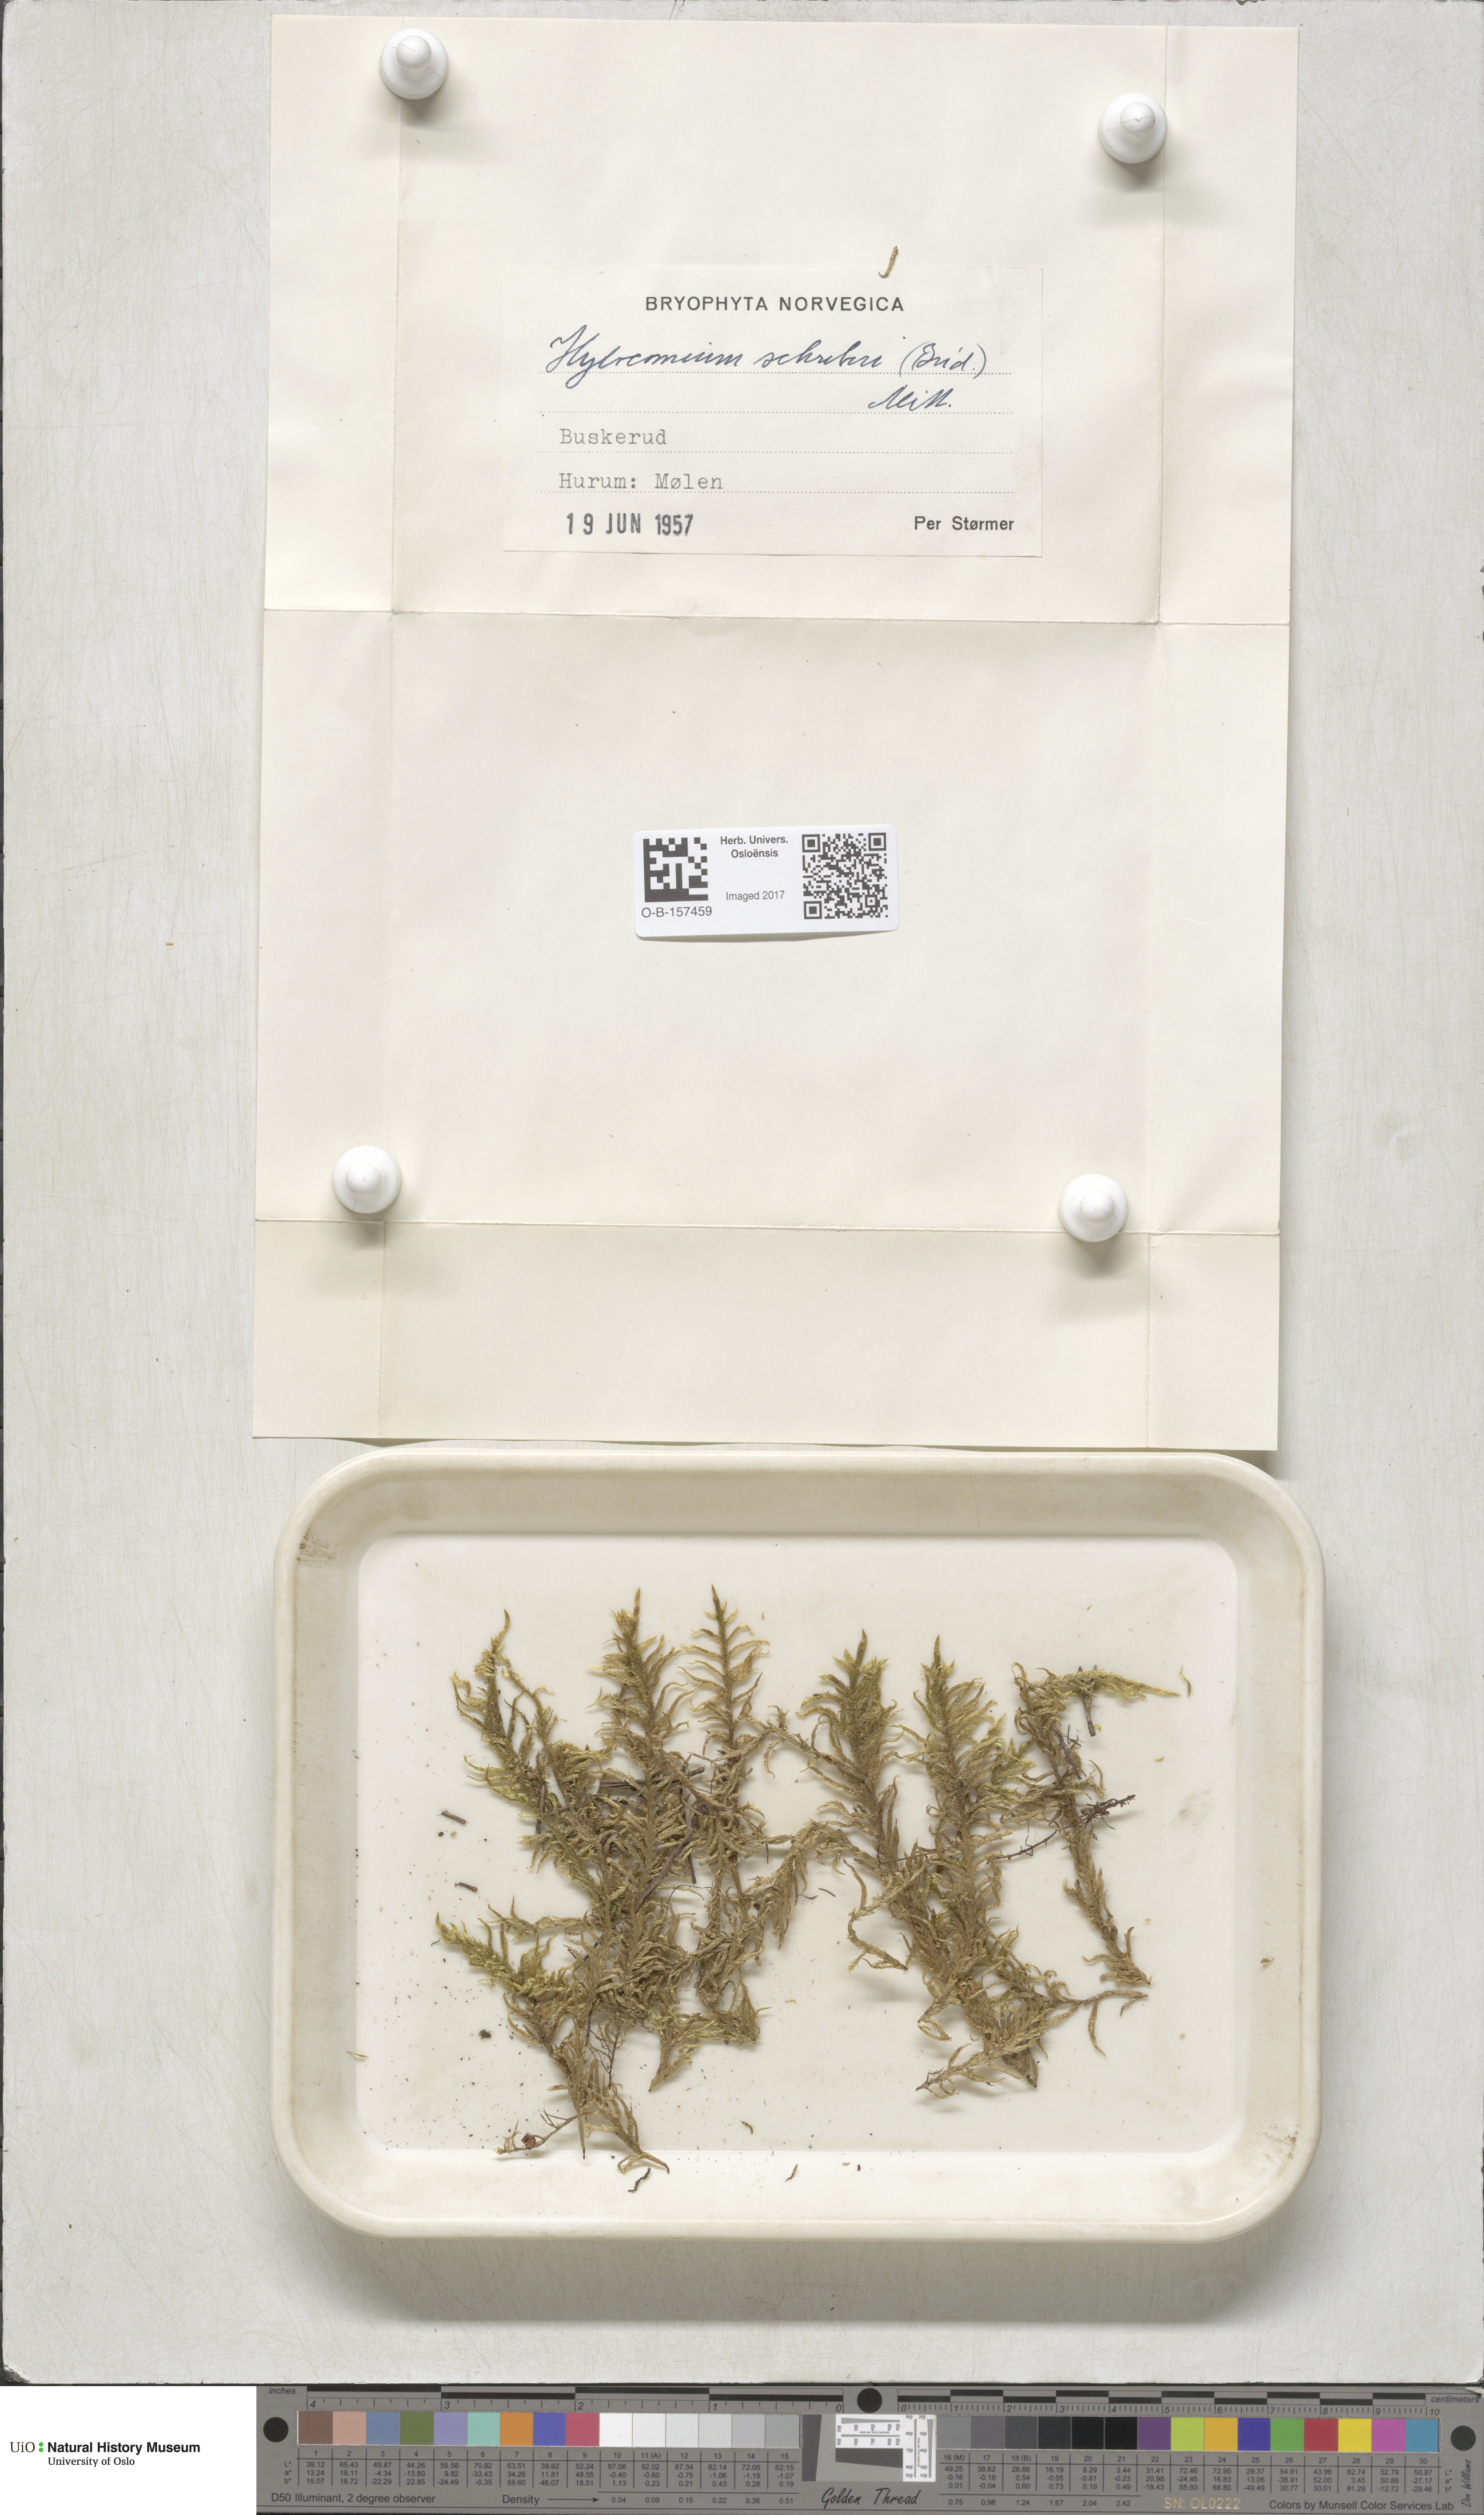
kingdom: Plantae
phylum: Bryophyta
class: Bryopsida
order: Hypnales
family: Hylocomiaceae
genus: Pleurozium
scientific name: Pleurozium schreberi
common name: Red-stemmed feather moss
